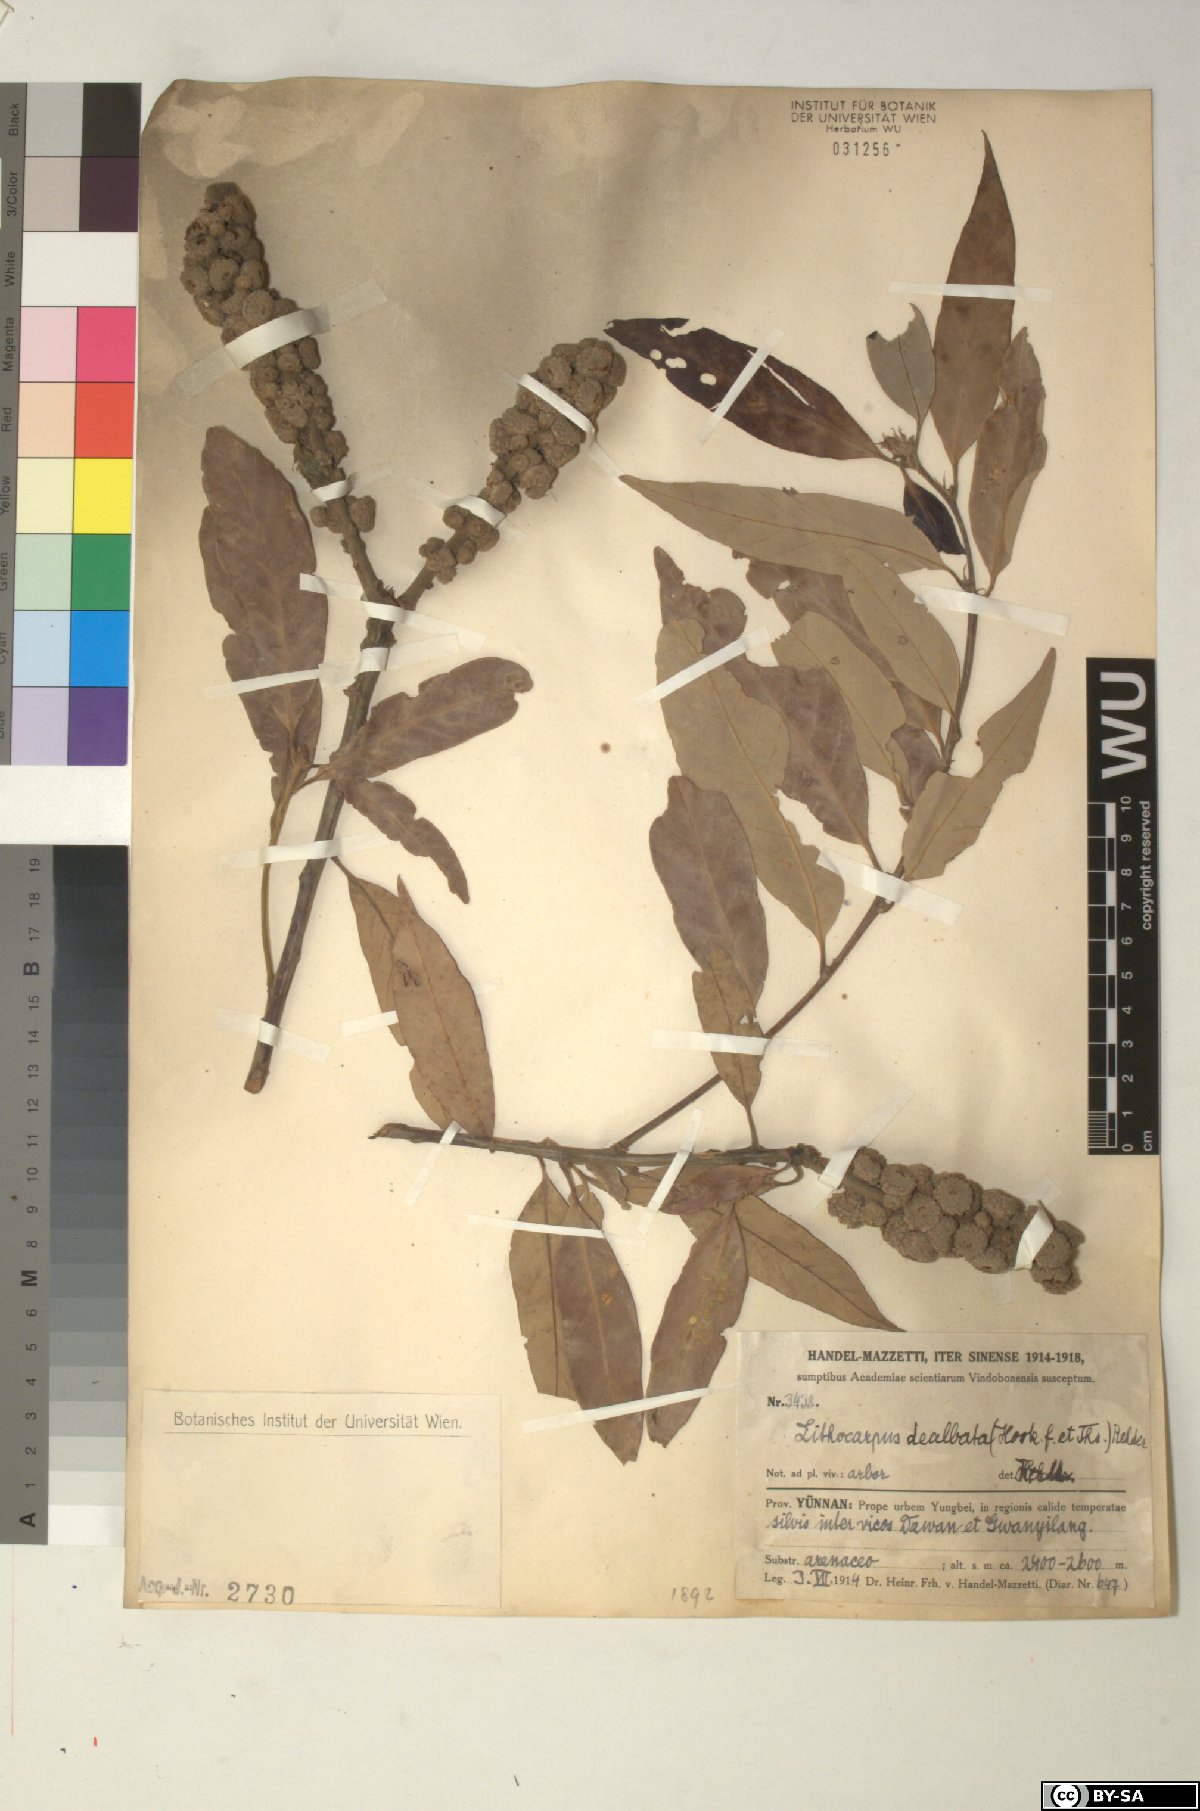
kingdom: Plantae
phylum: Tracheophyta
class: Magnoliopsida
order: Fagales
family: Fagaceae
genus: Lithocarpus
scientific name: Lithocarpus dealbatus
